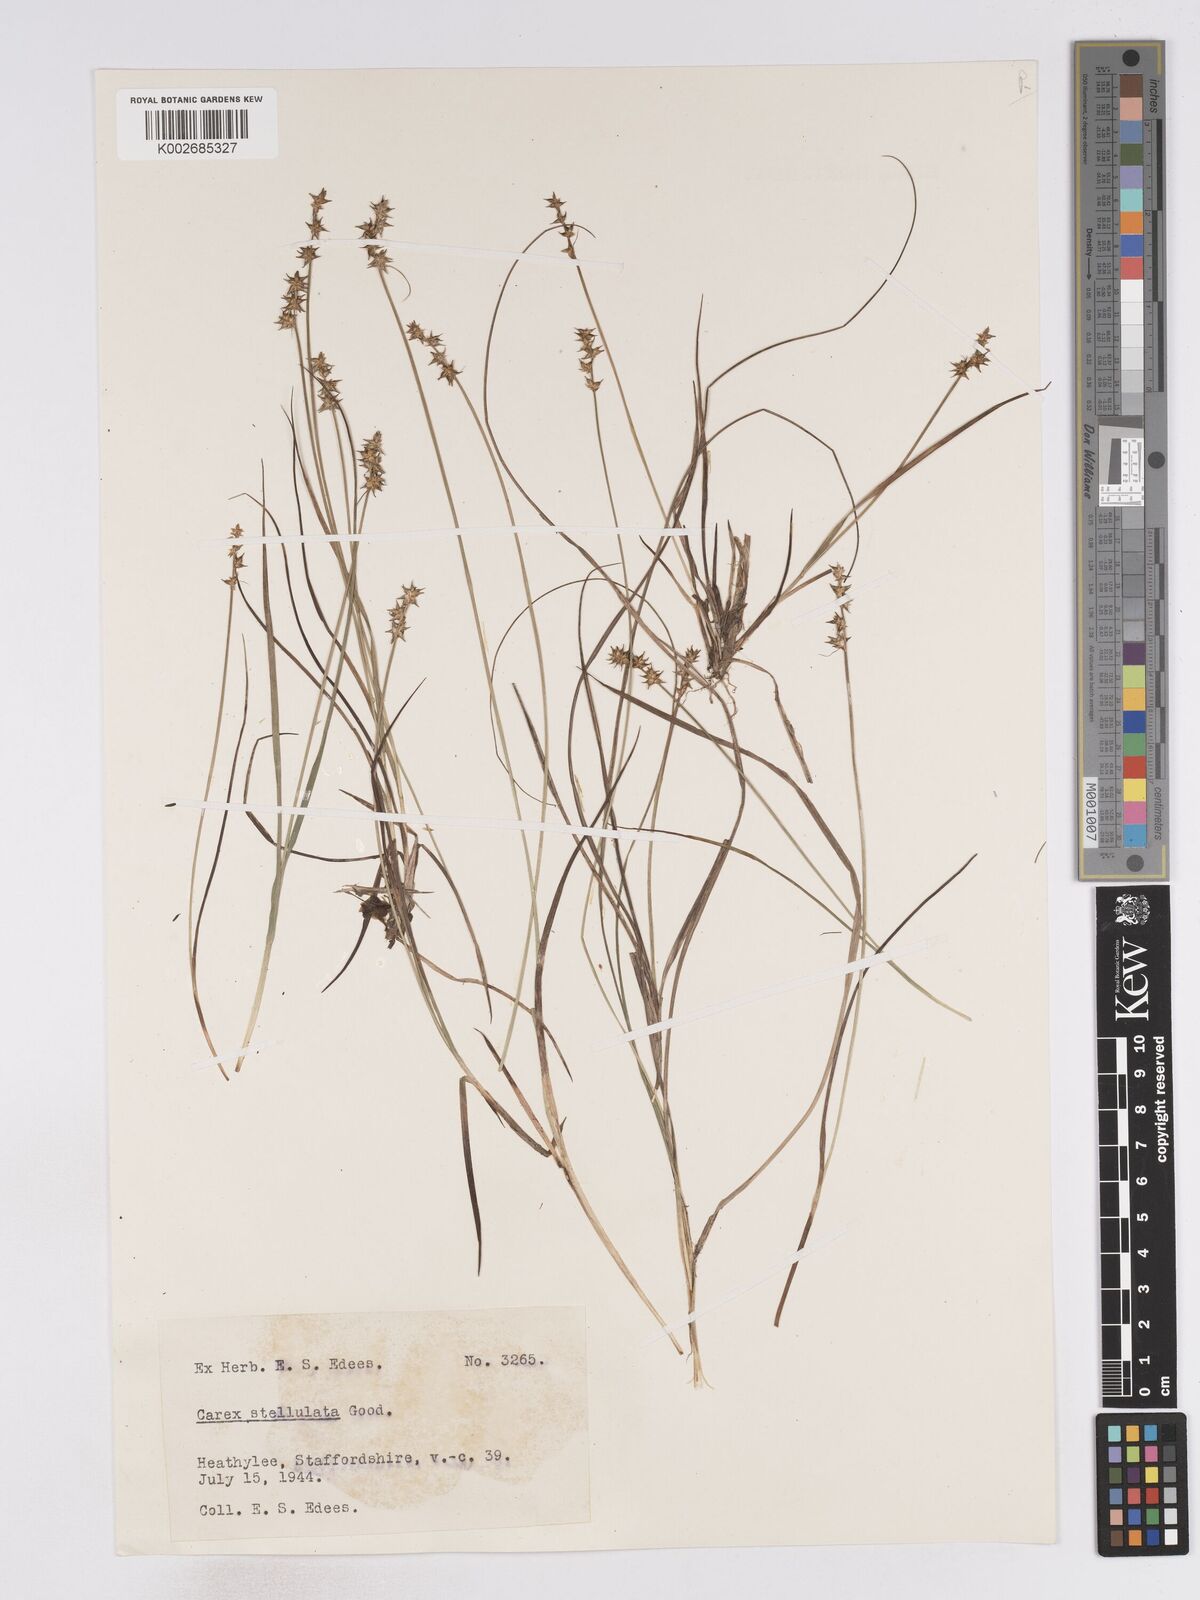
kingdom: Plantae
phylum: Tracheophyta
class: Liliopsida
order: Poales
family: Cyperaceae
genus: Carex
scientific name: Carex echinata
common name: Star sedge
